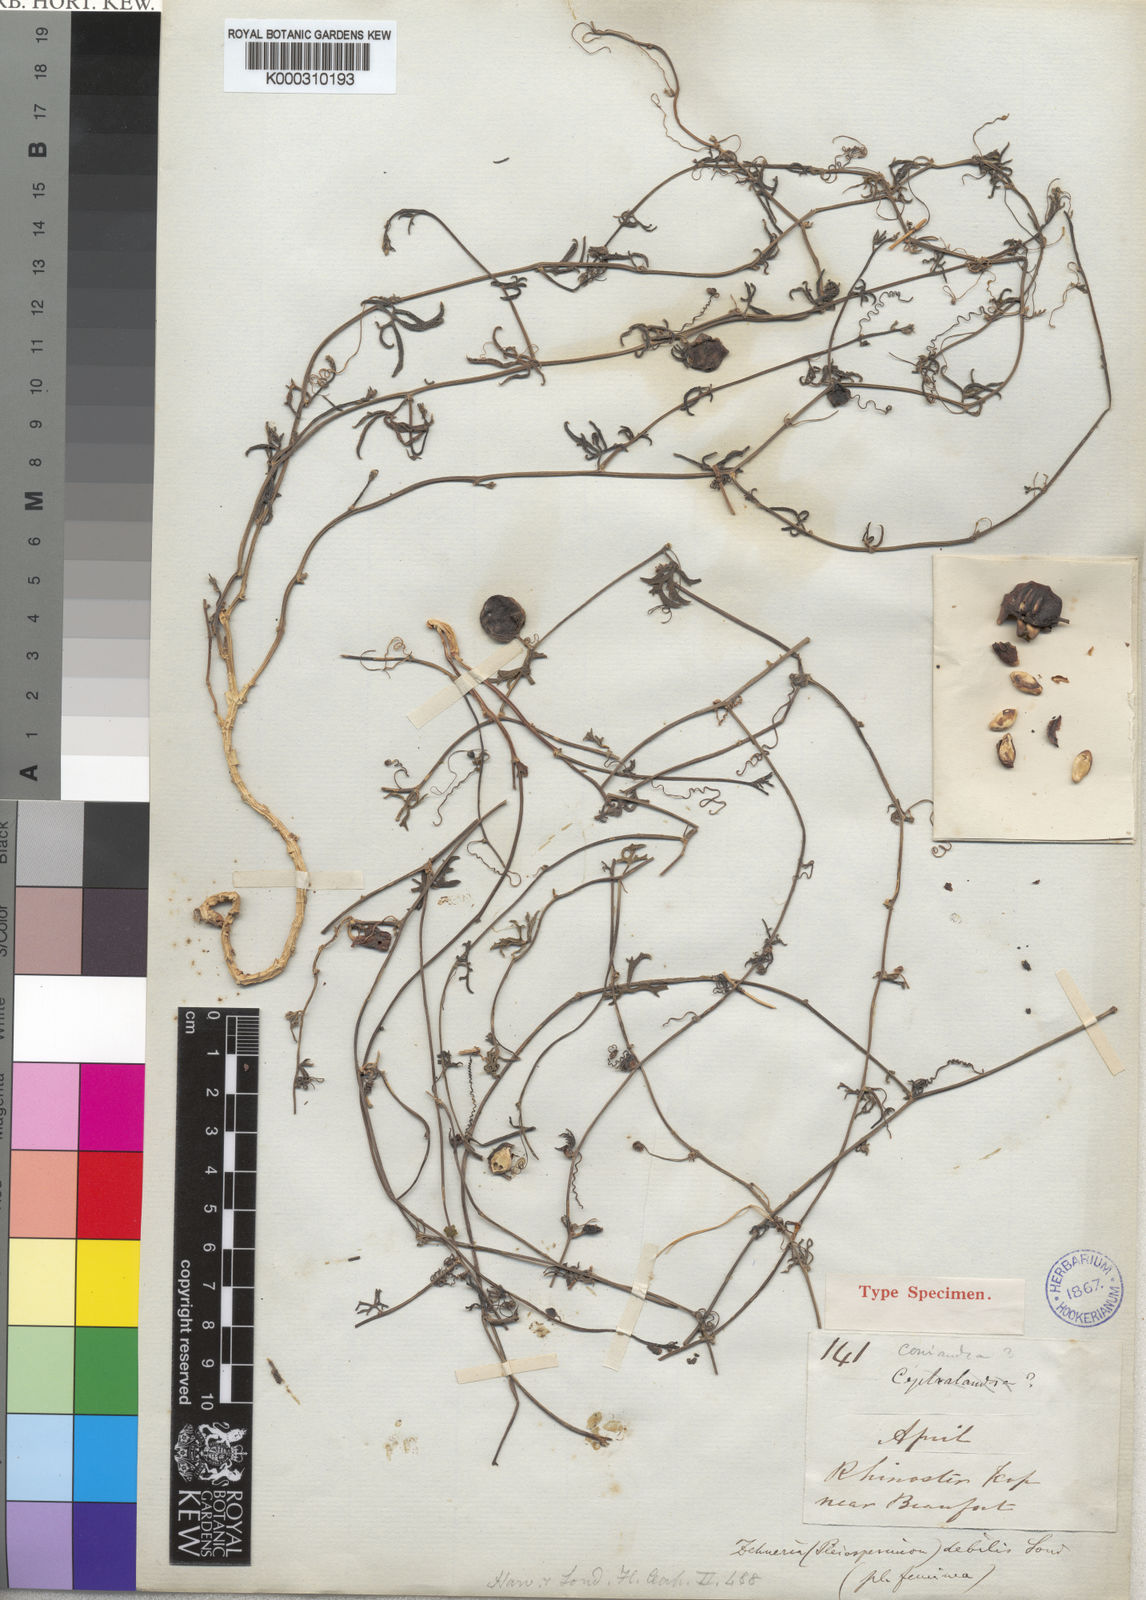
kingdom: Plantae
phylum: Tracheophyta
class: Magnoliopsida
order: Cucurbitales
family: Cucurbitaceae
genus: Trochomeria
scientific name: Trochomeria debilis
